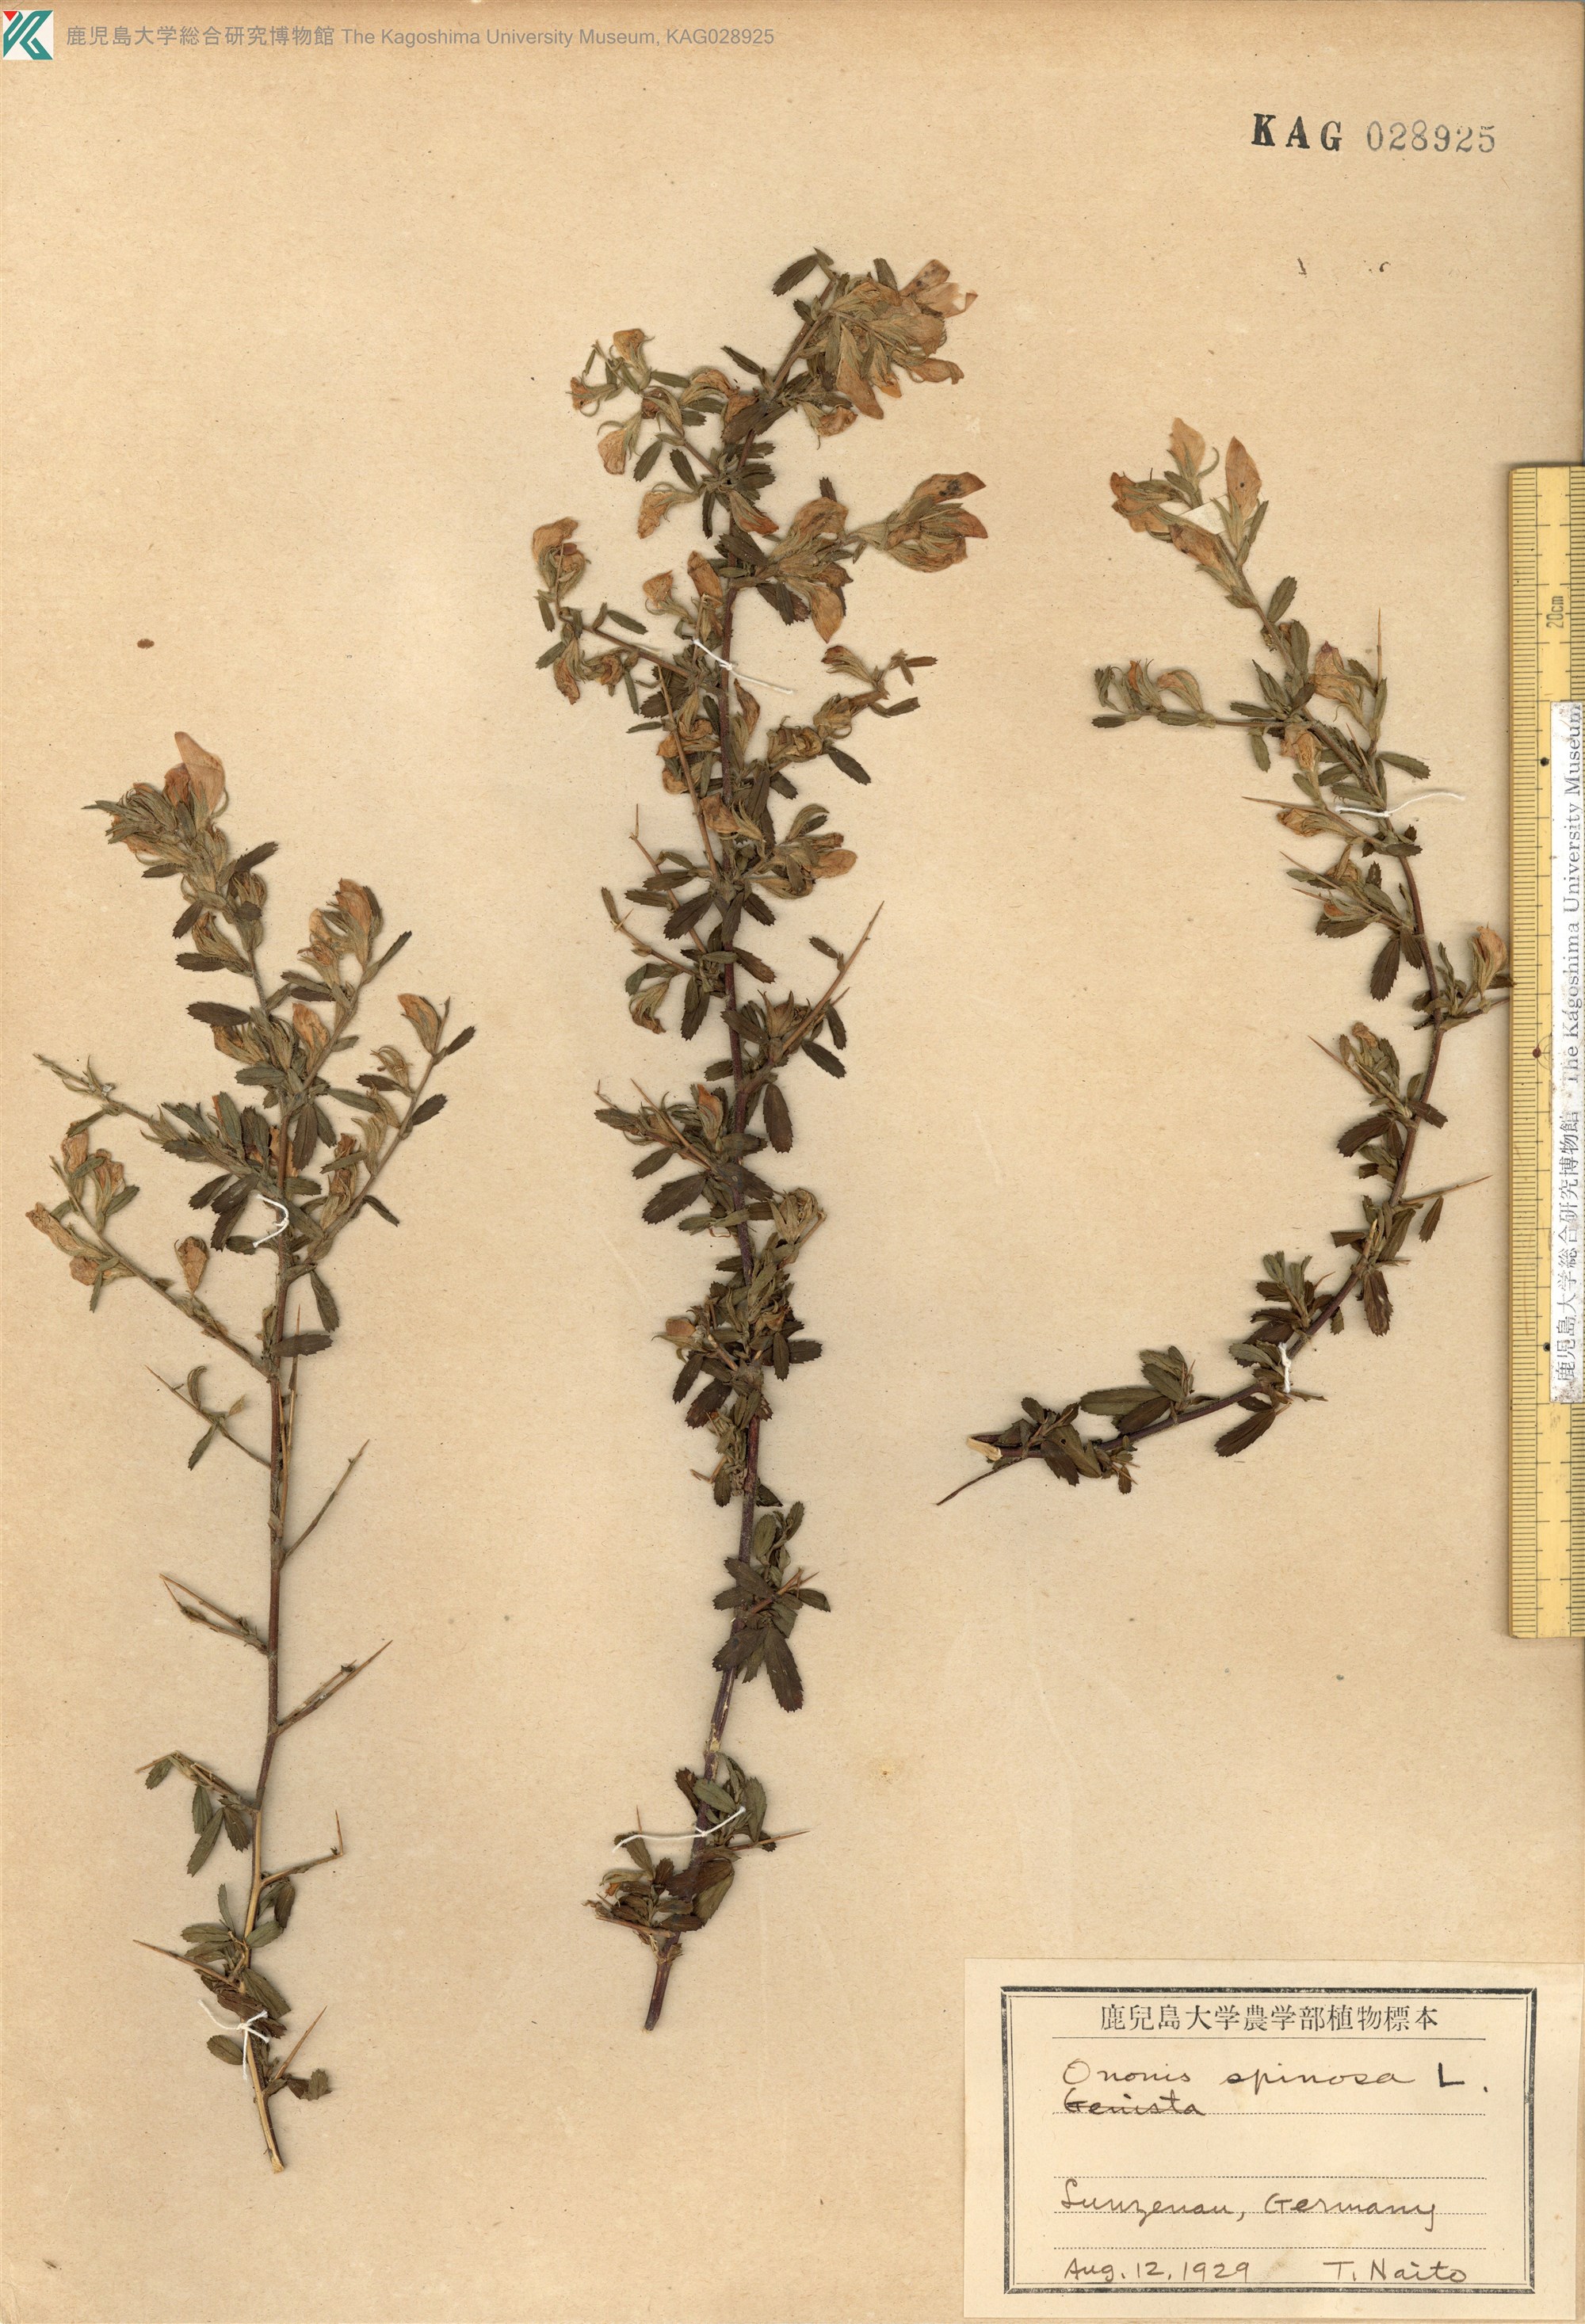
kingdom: Plantae
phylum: Tracheophyta
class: Magnoliopsida
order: Fabales
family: Fabaceae
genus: Ononis
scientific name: Ononis spinosa
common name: Spiny restharrow
